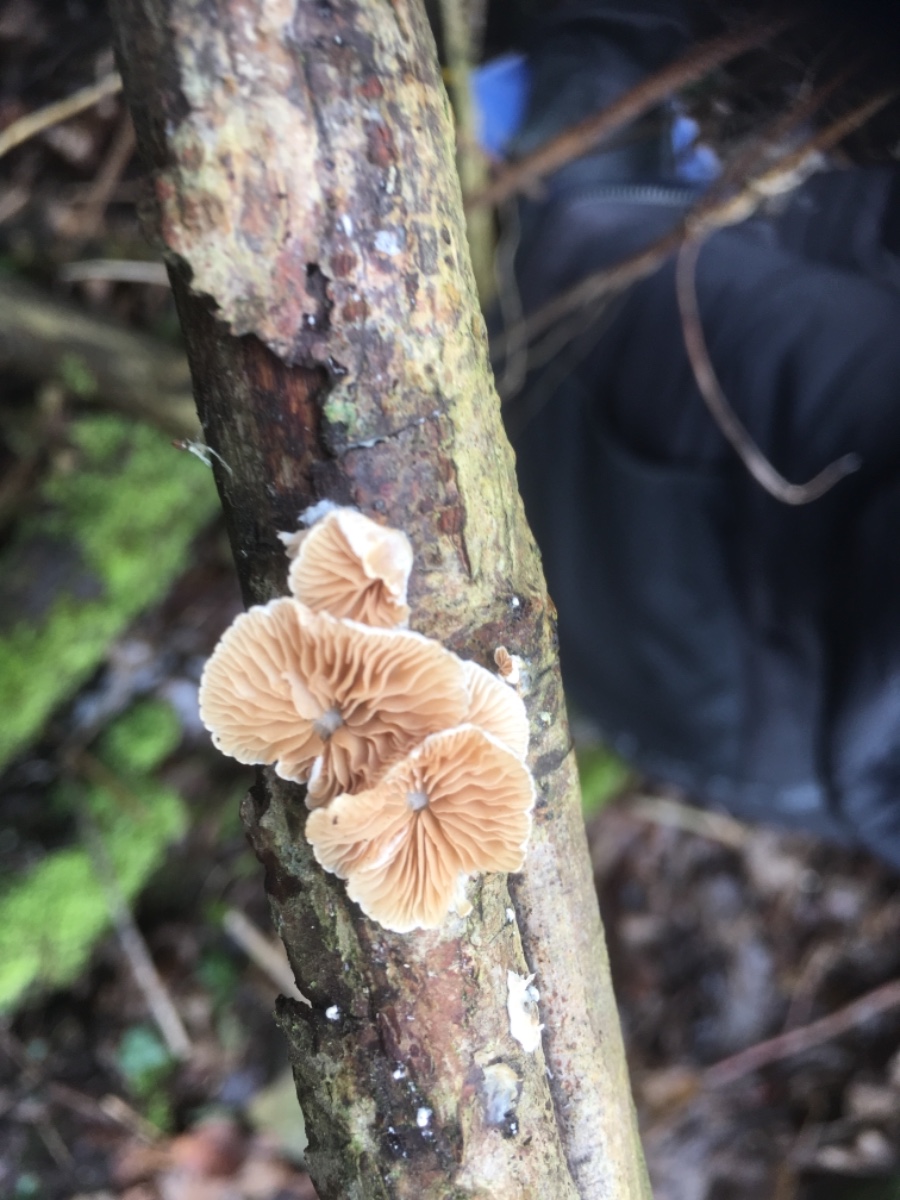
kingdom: Fungi
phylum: Basidiomycota
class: Agaricomycetes
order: Agaricales
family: Crepidotaceae
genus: Crepidotus
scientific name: Crepidotus cesatii
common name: almindelig muslingesvamp
